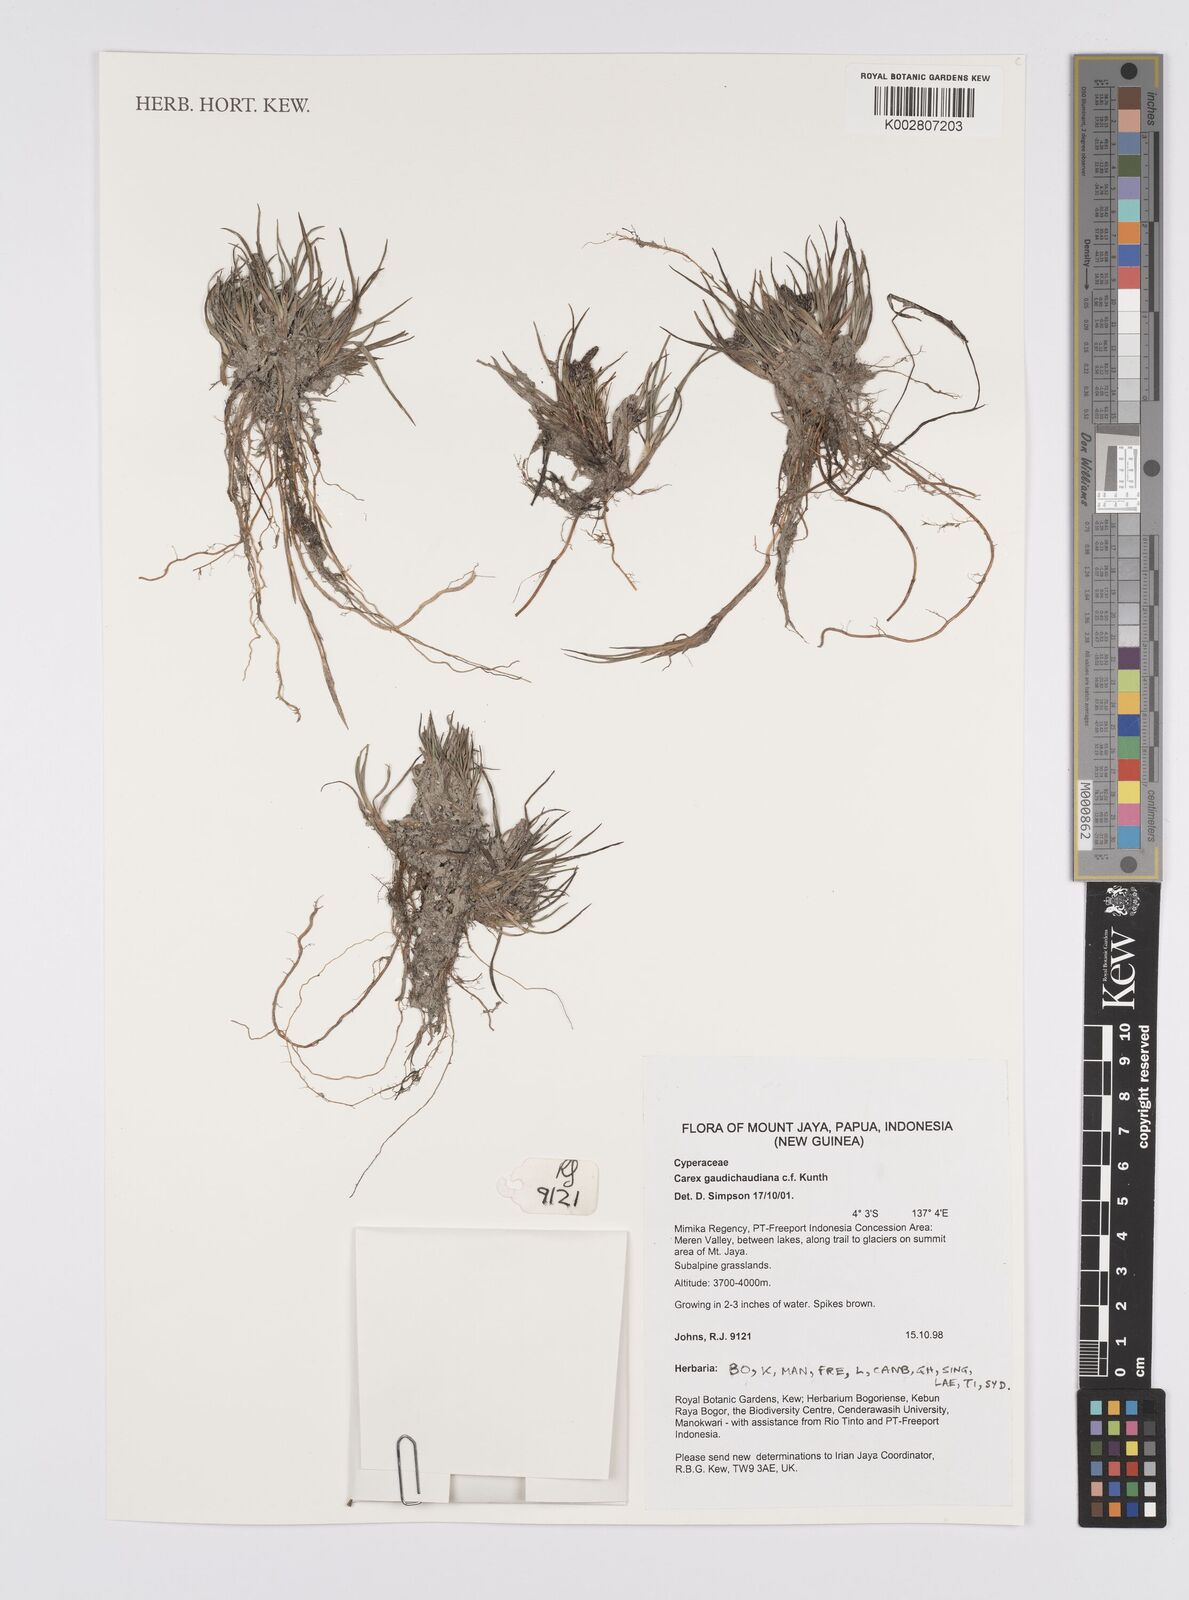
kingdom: Plantae
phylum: Tracheophyta
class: Liliopsida
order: Poales
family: Cyperaceae
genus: Carex
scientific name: Carex gaudichaudiana
